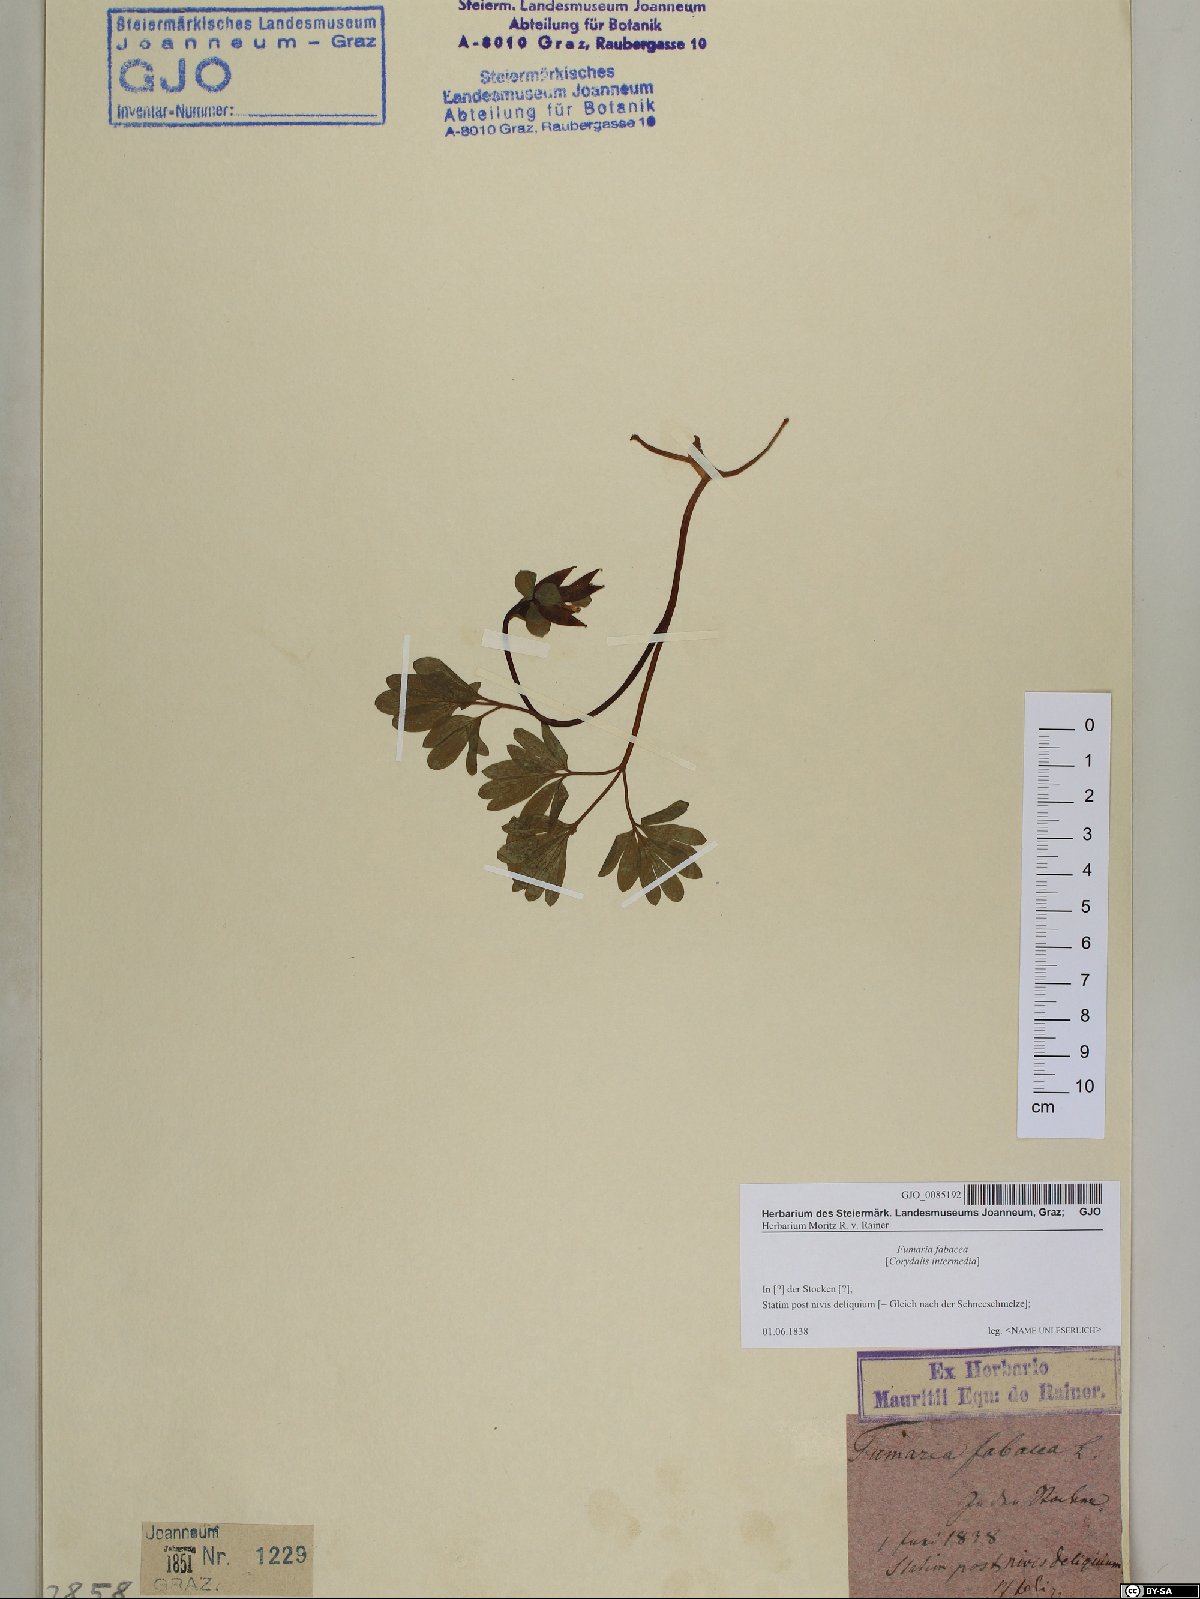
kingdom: Plantae
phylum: Tracheophyta
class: Magnoliopsida
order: Ranunculales
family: Papaveraceae
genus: Corydalis
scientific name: Corydalis intermedia
